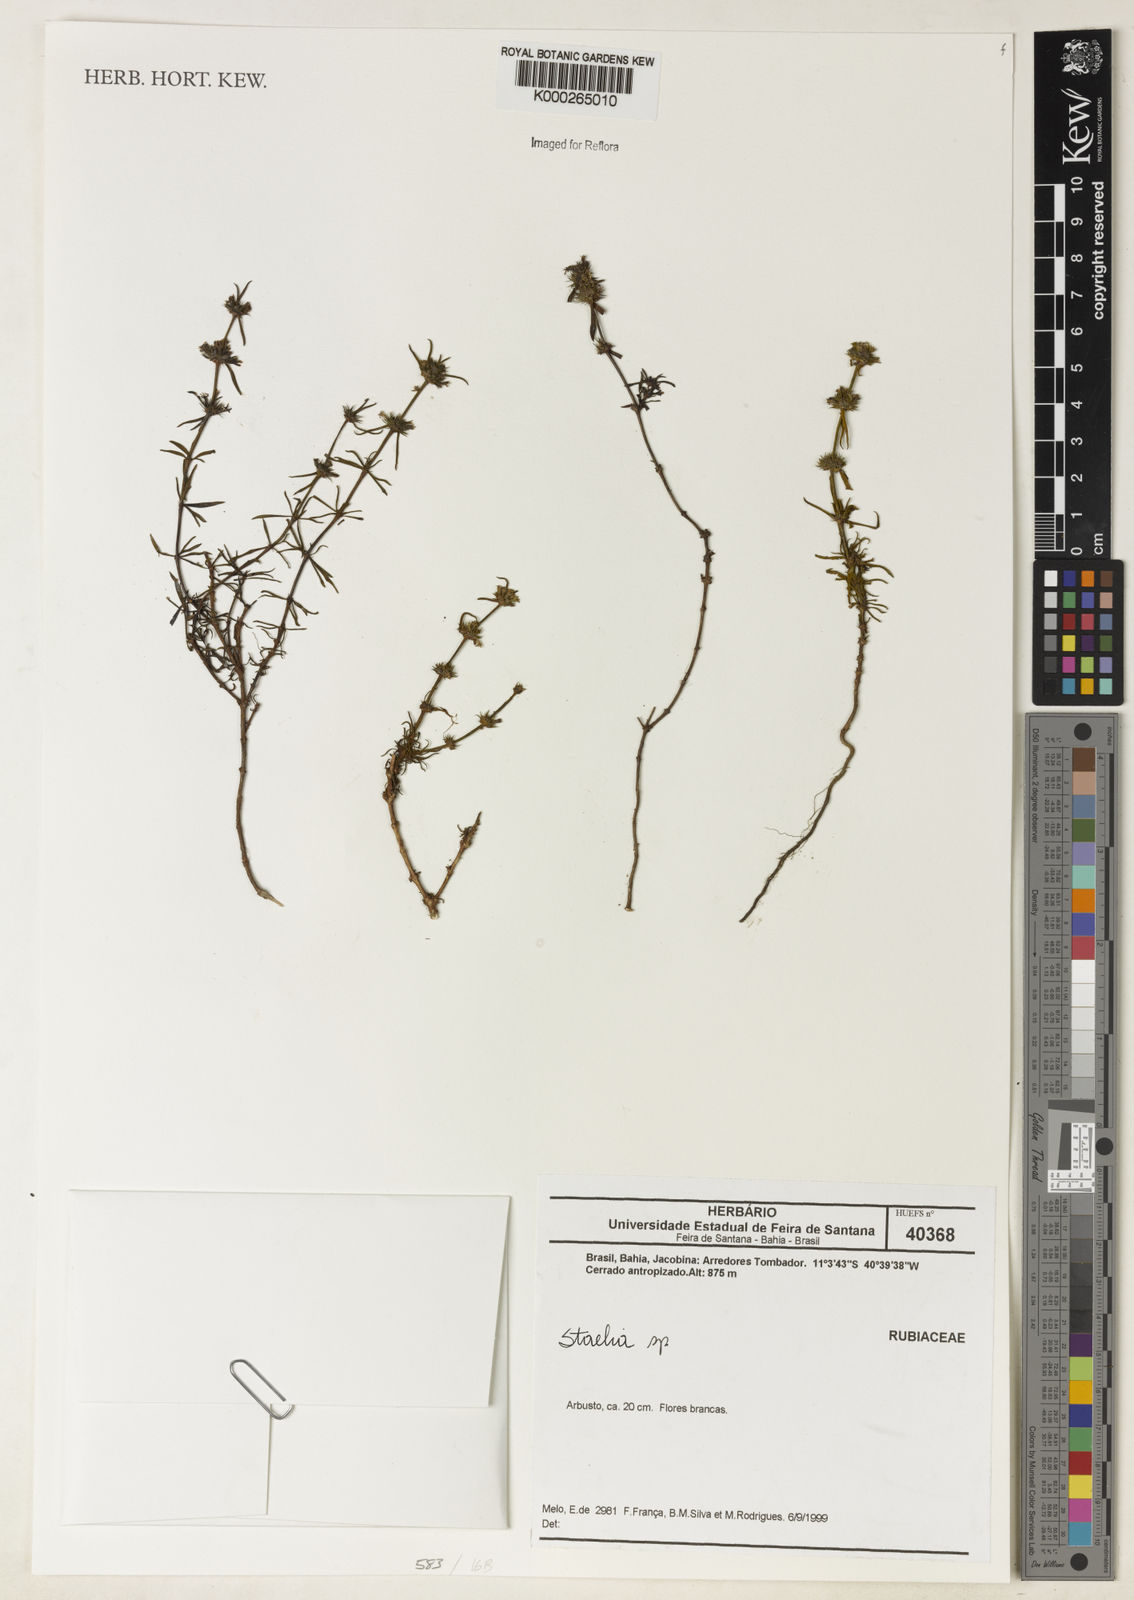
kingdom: Plantae
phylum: Tracheophyta
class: Magnoliopsida
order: Gentianales
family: Rubiaceae
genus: Staelia
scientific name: Staelia
